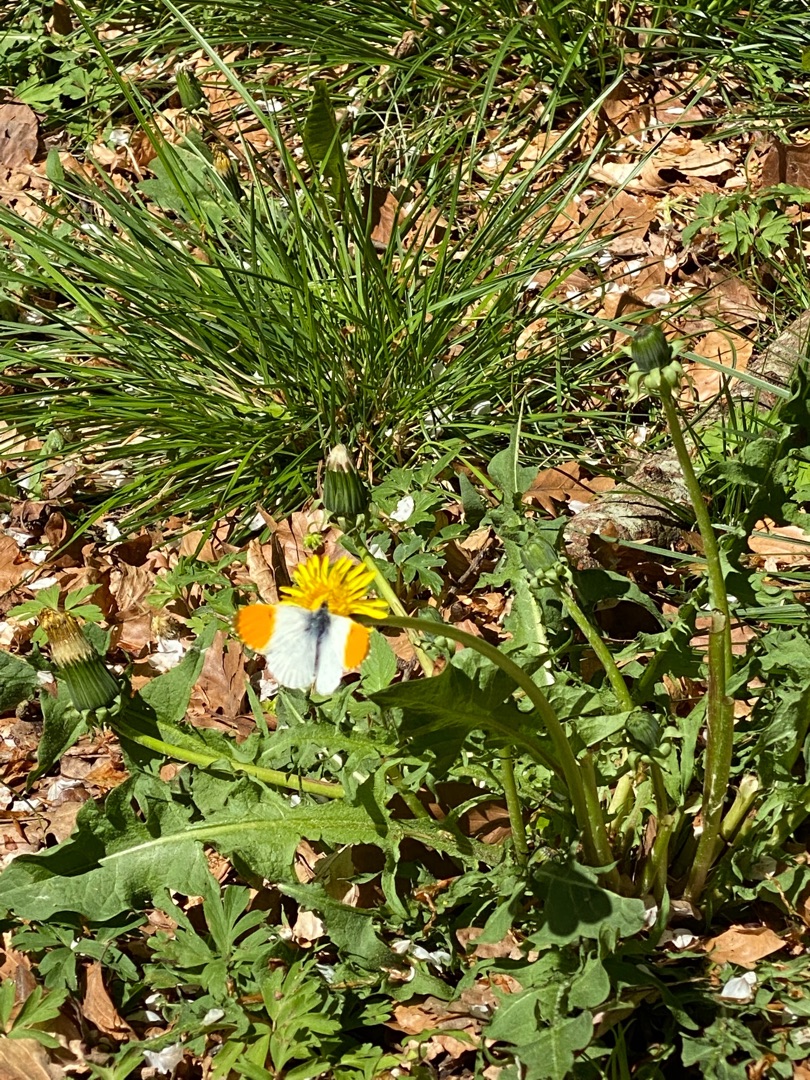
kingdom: Animalia
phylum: Arthropoda
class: Insecta
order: Lepidoptera
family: Pieridae
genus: Anthocharis
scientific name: Anthocharis cardamines
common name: Aurora
